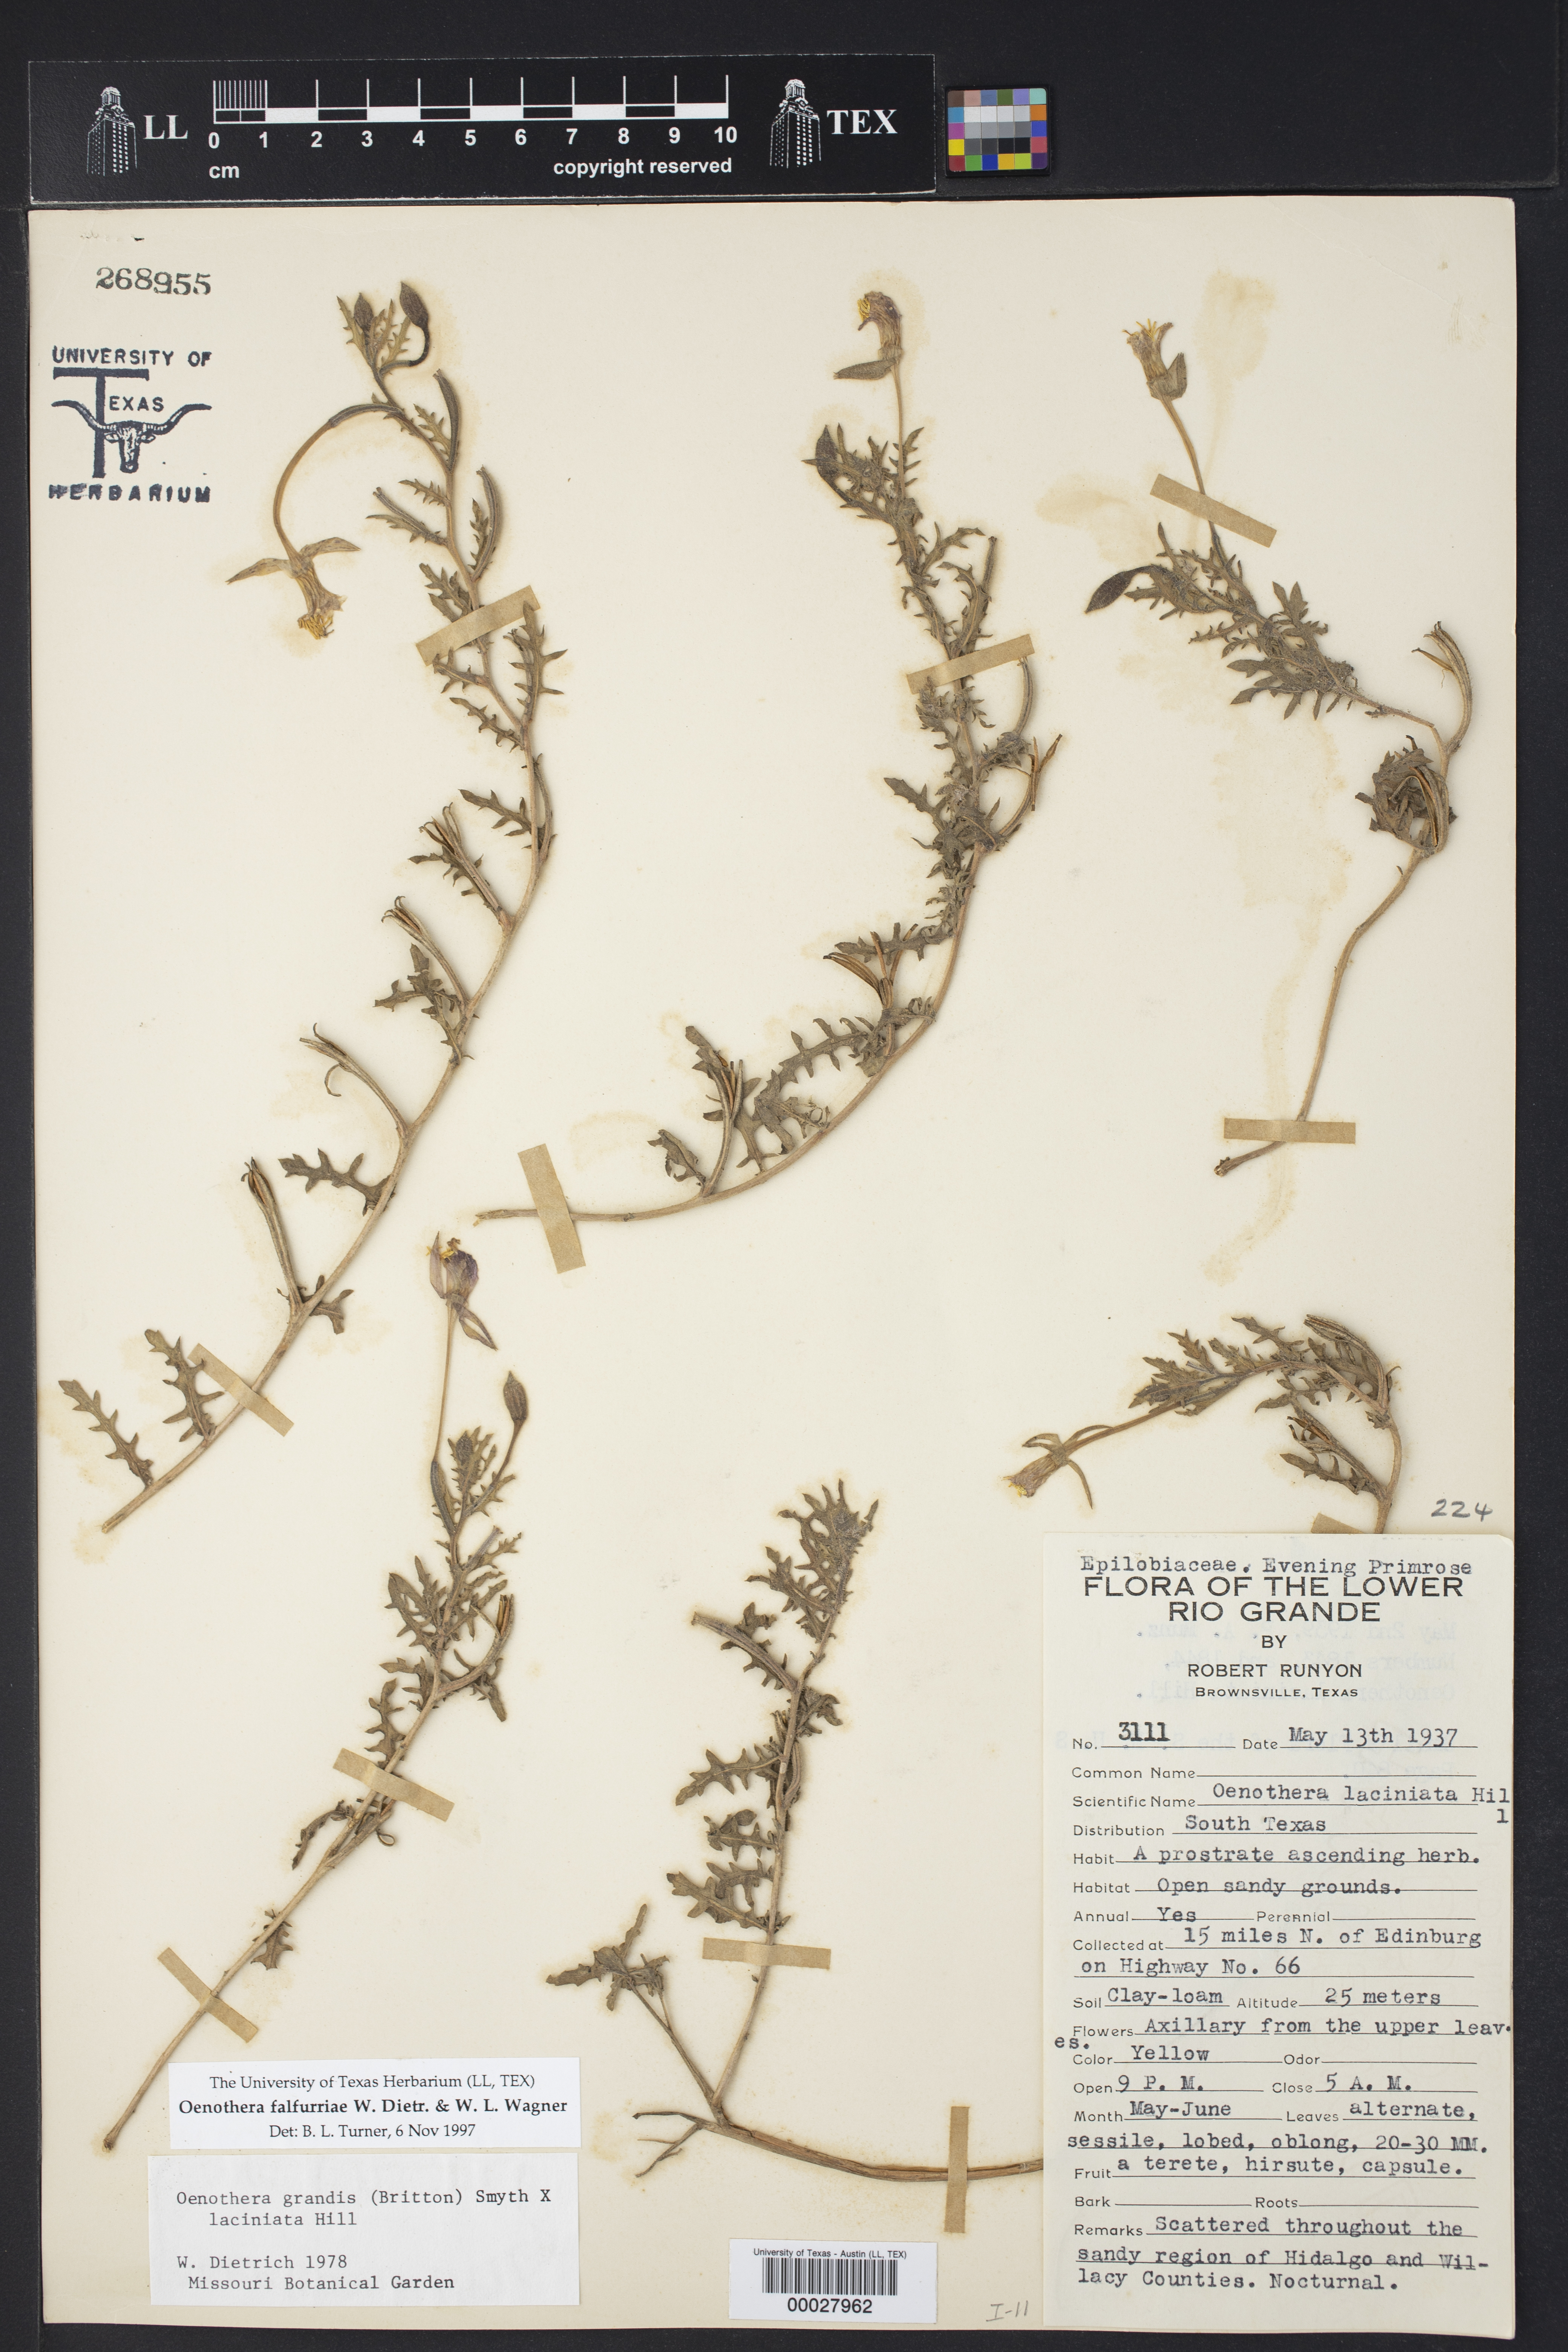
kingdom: Plantae
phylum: Tracheophyta
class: Magnoliopsida
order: Myrtales
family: Onagraceae
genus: Oenothera
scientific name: Oenothera falfurriae
